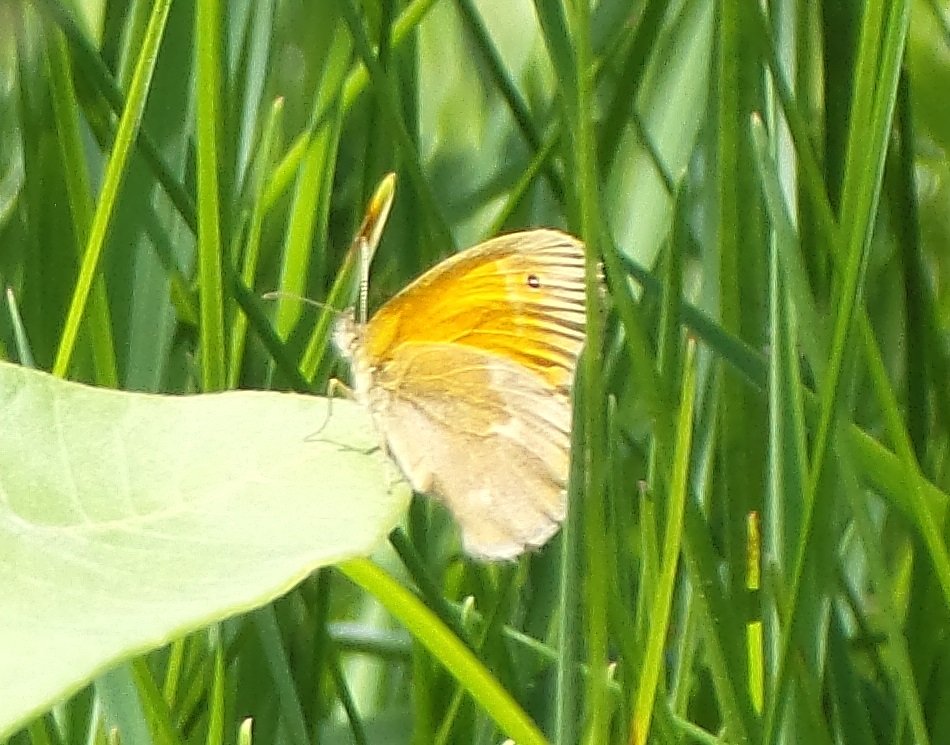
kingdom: Animalia
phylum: Arthropoda
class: Insecta
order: Lepidoptera
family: Nymphalidae
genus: Coenonympha
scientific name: Coenonympha tullia
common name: Large Heath
